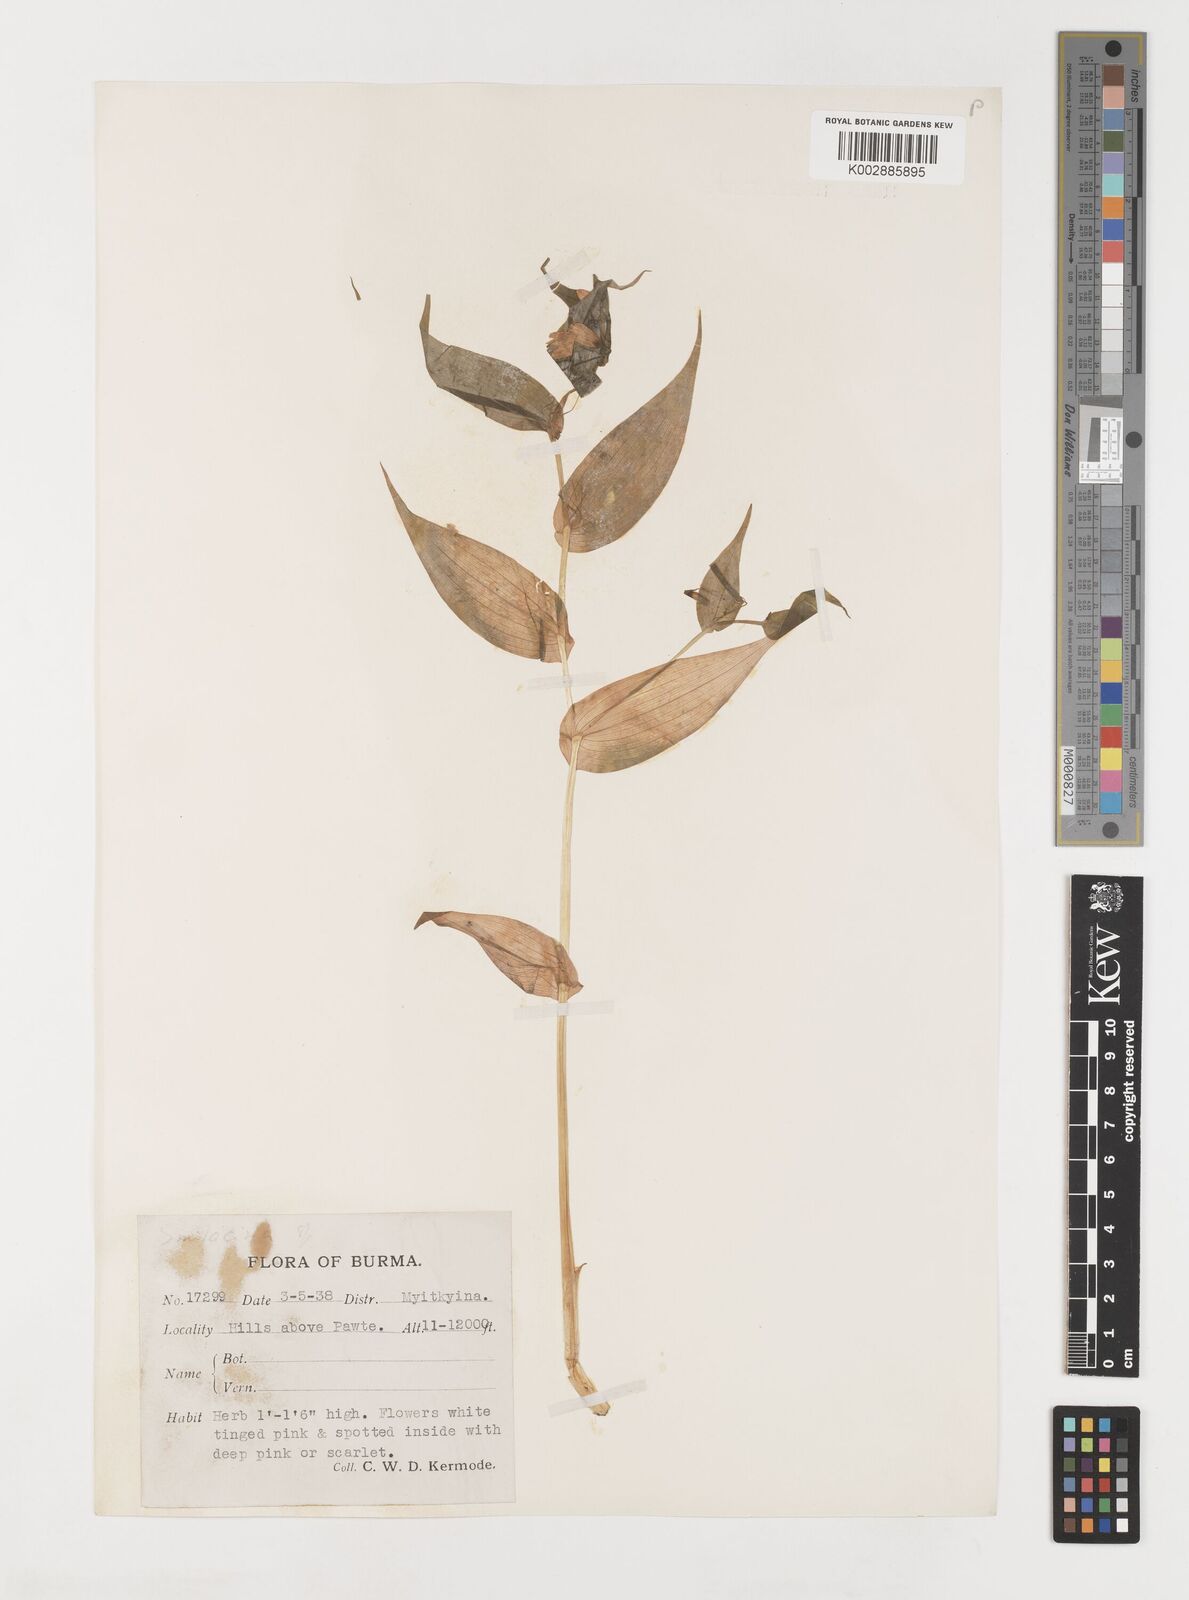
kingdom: Plantae
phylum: Tracheophyta
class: Liliopsida
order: Liliales
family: Liliaceae
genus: Streptopus
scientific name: Streptopus simplex
